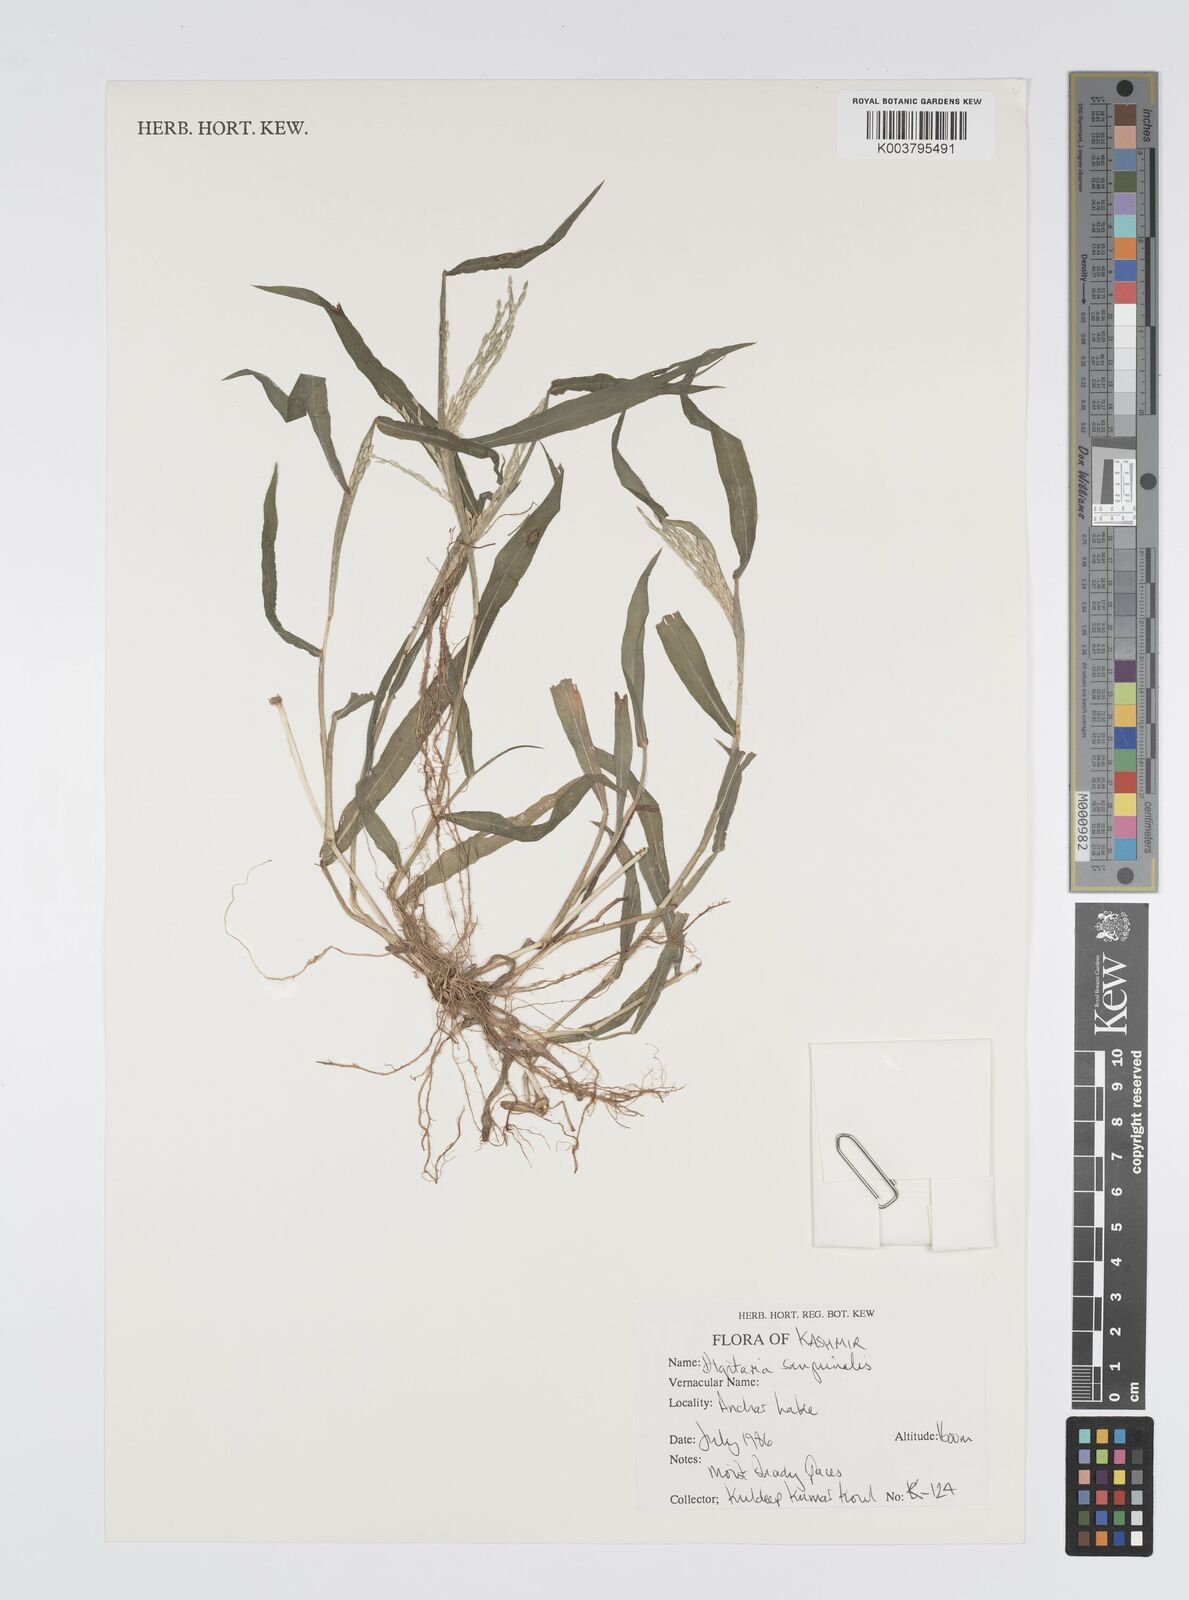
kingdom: Plantae
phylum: Tracheophyta
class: Liliopsida
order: Poales
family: Poaceae
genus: Digitaria
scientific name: Digitaria sanguinalis
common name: Hairy crabgrass
